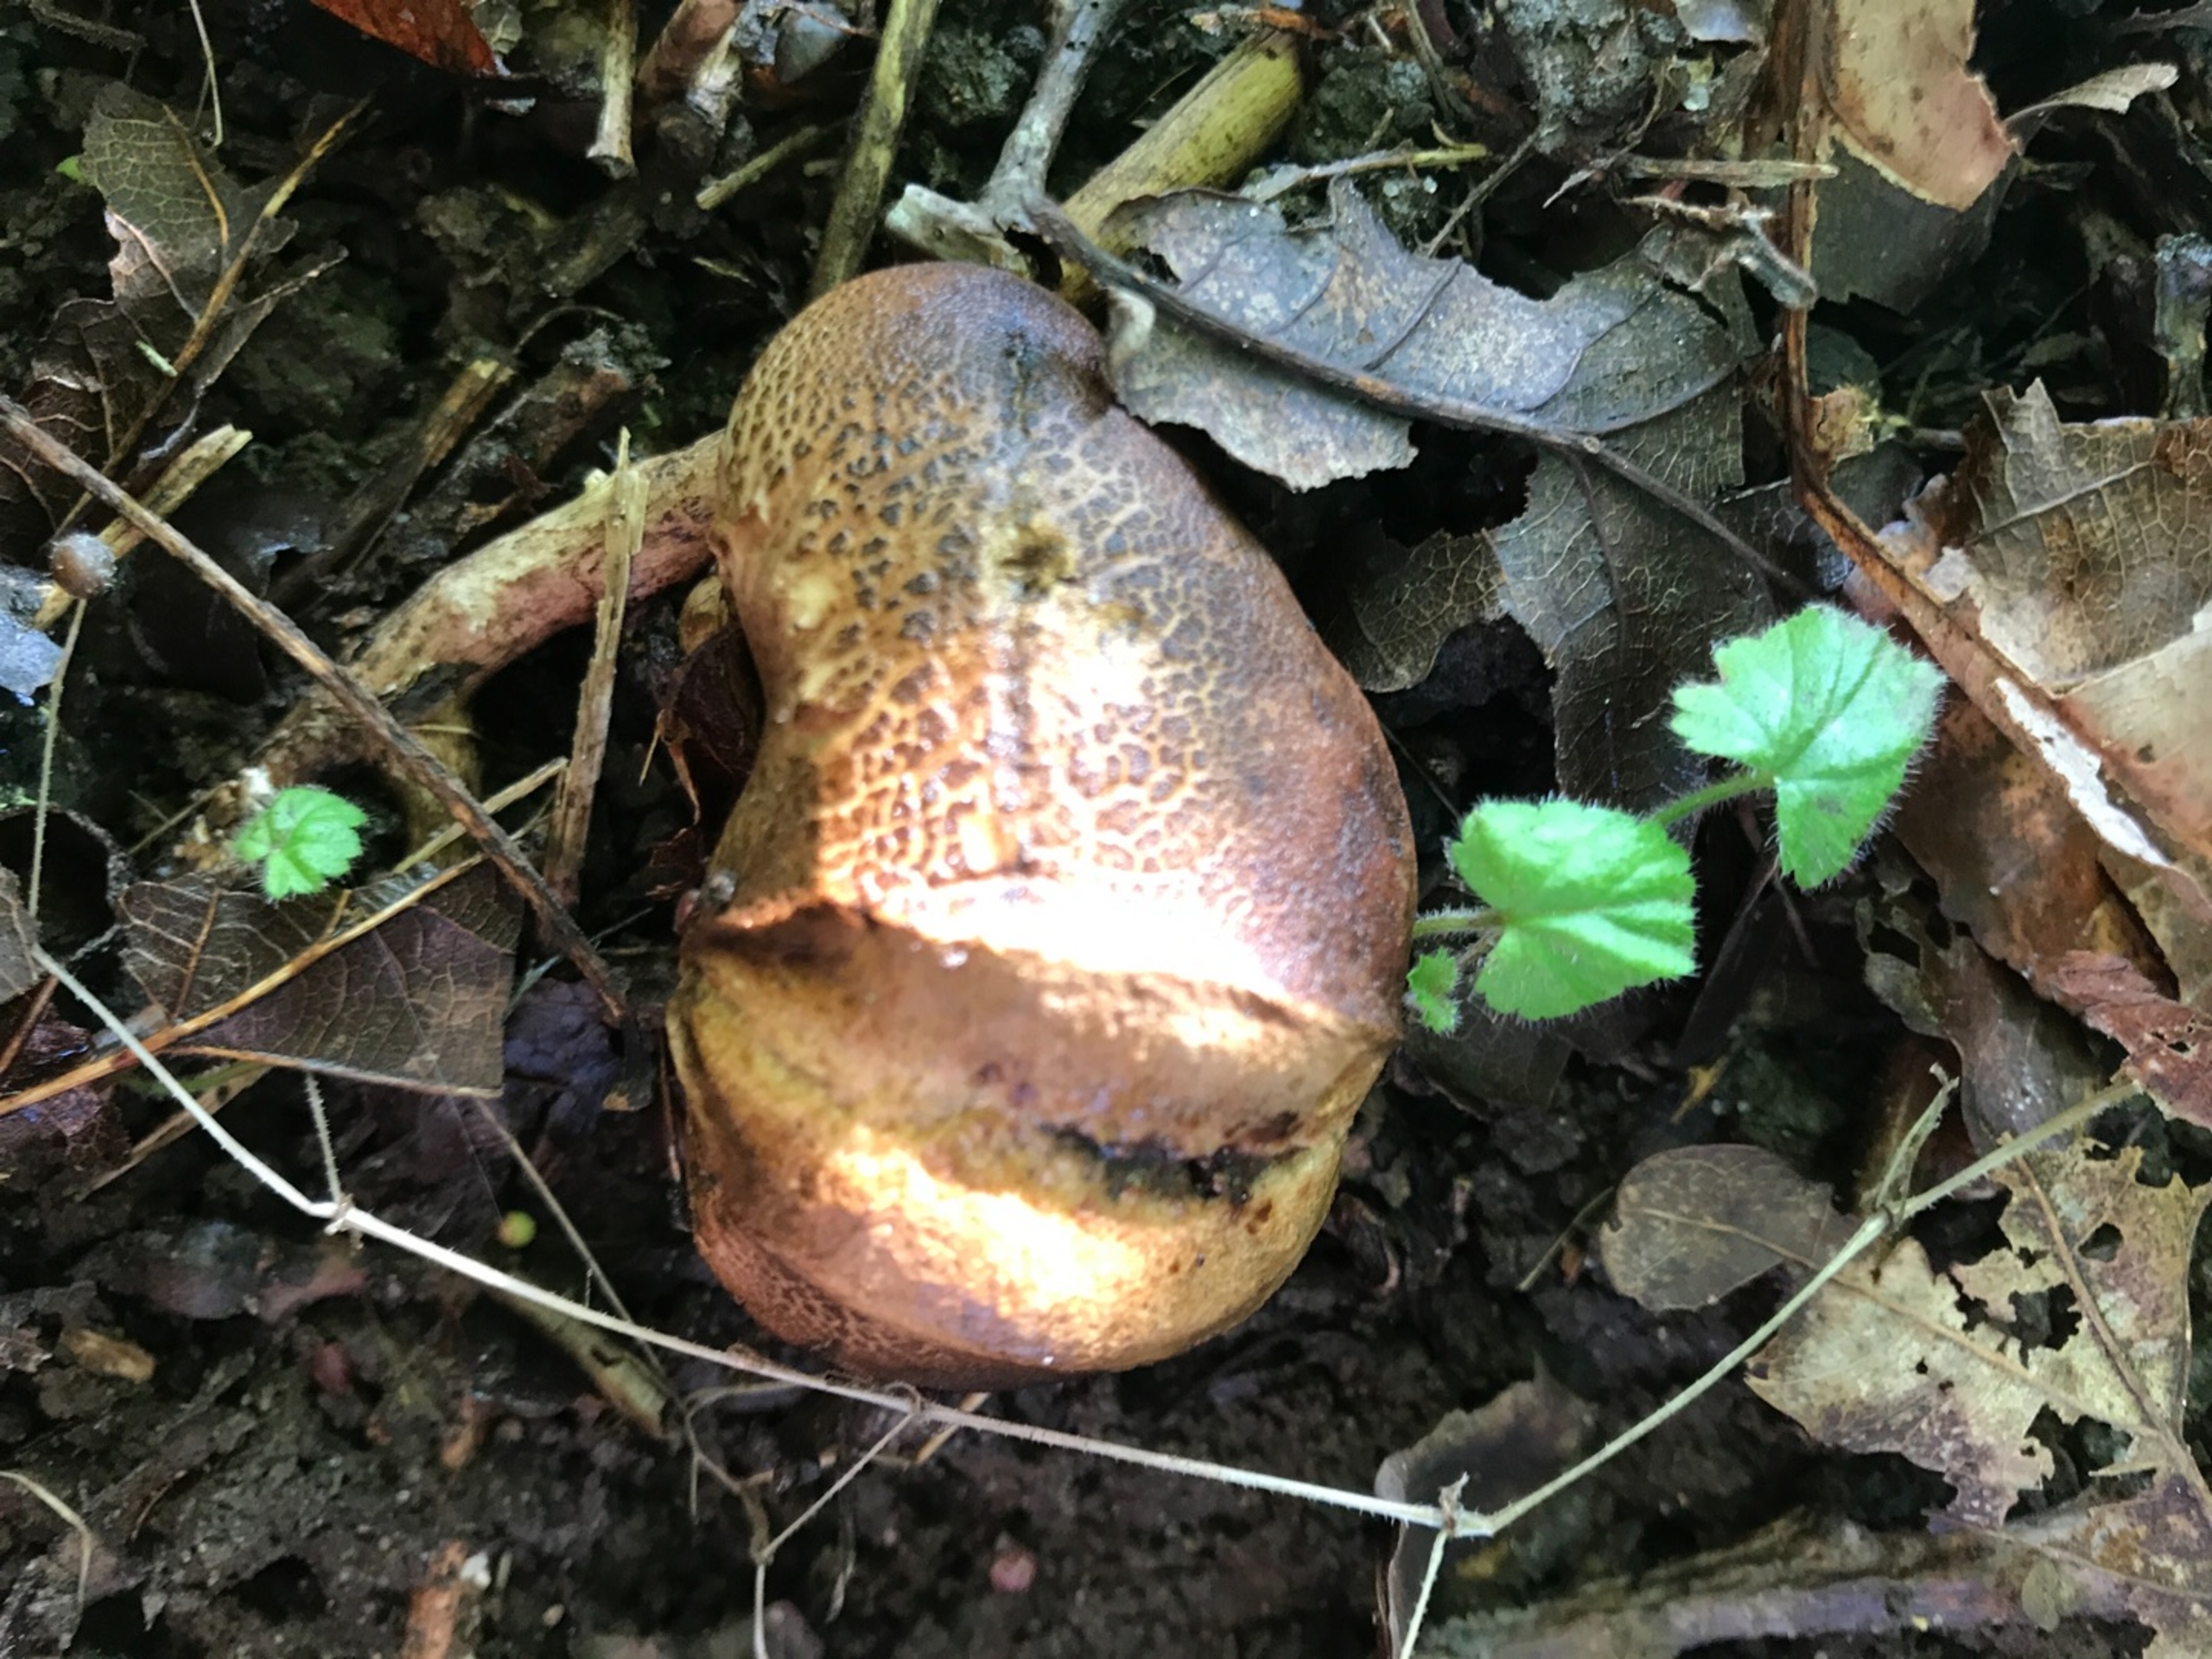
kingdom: Fungi
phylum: Basidiomycota
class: Agaricomycetes
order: Boletales
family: Sclerodermataceae
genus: Scleroderma
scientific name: Scleroderma citrinum
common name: Almindelig bruskbold
